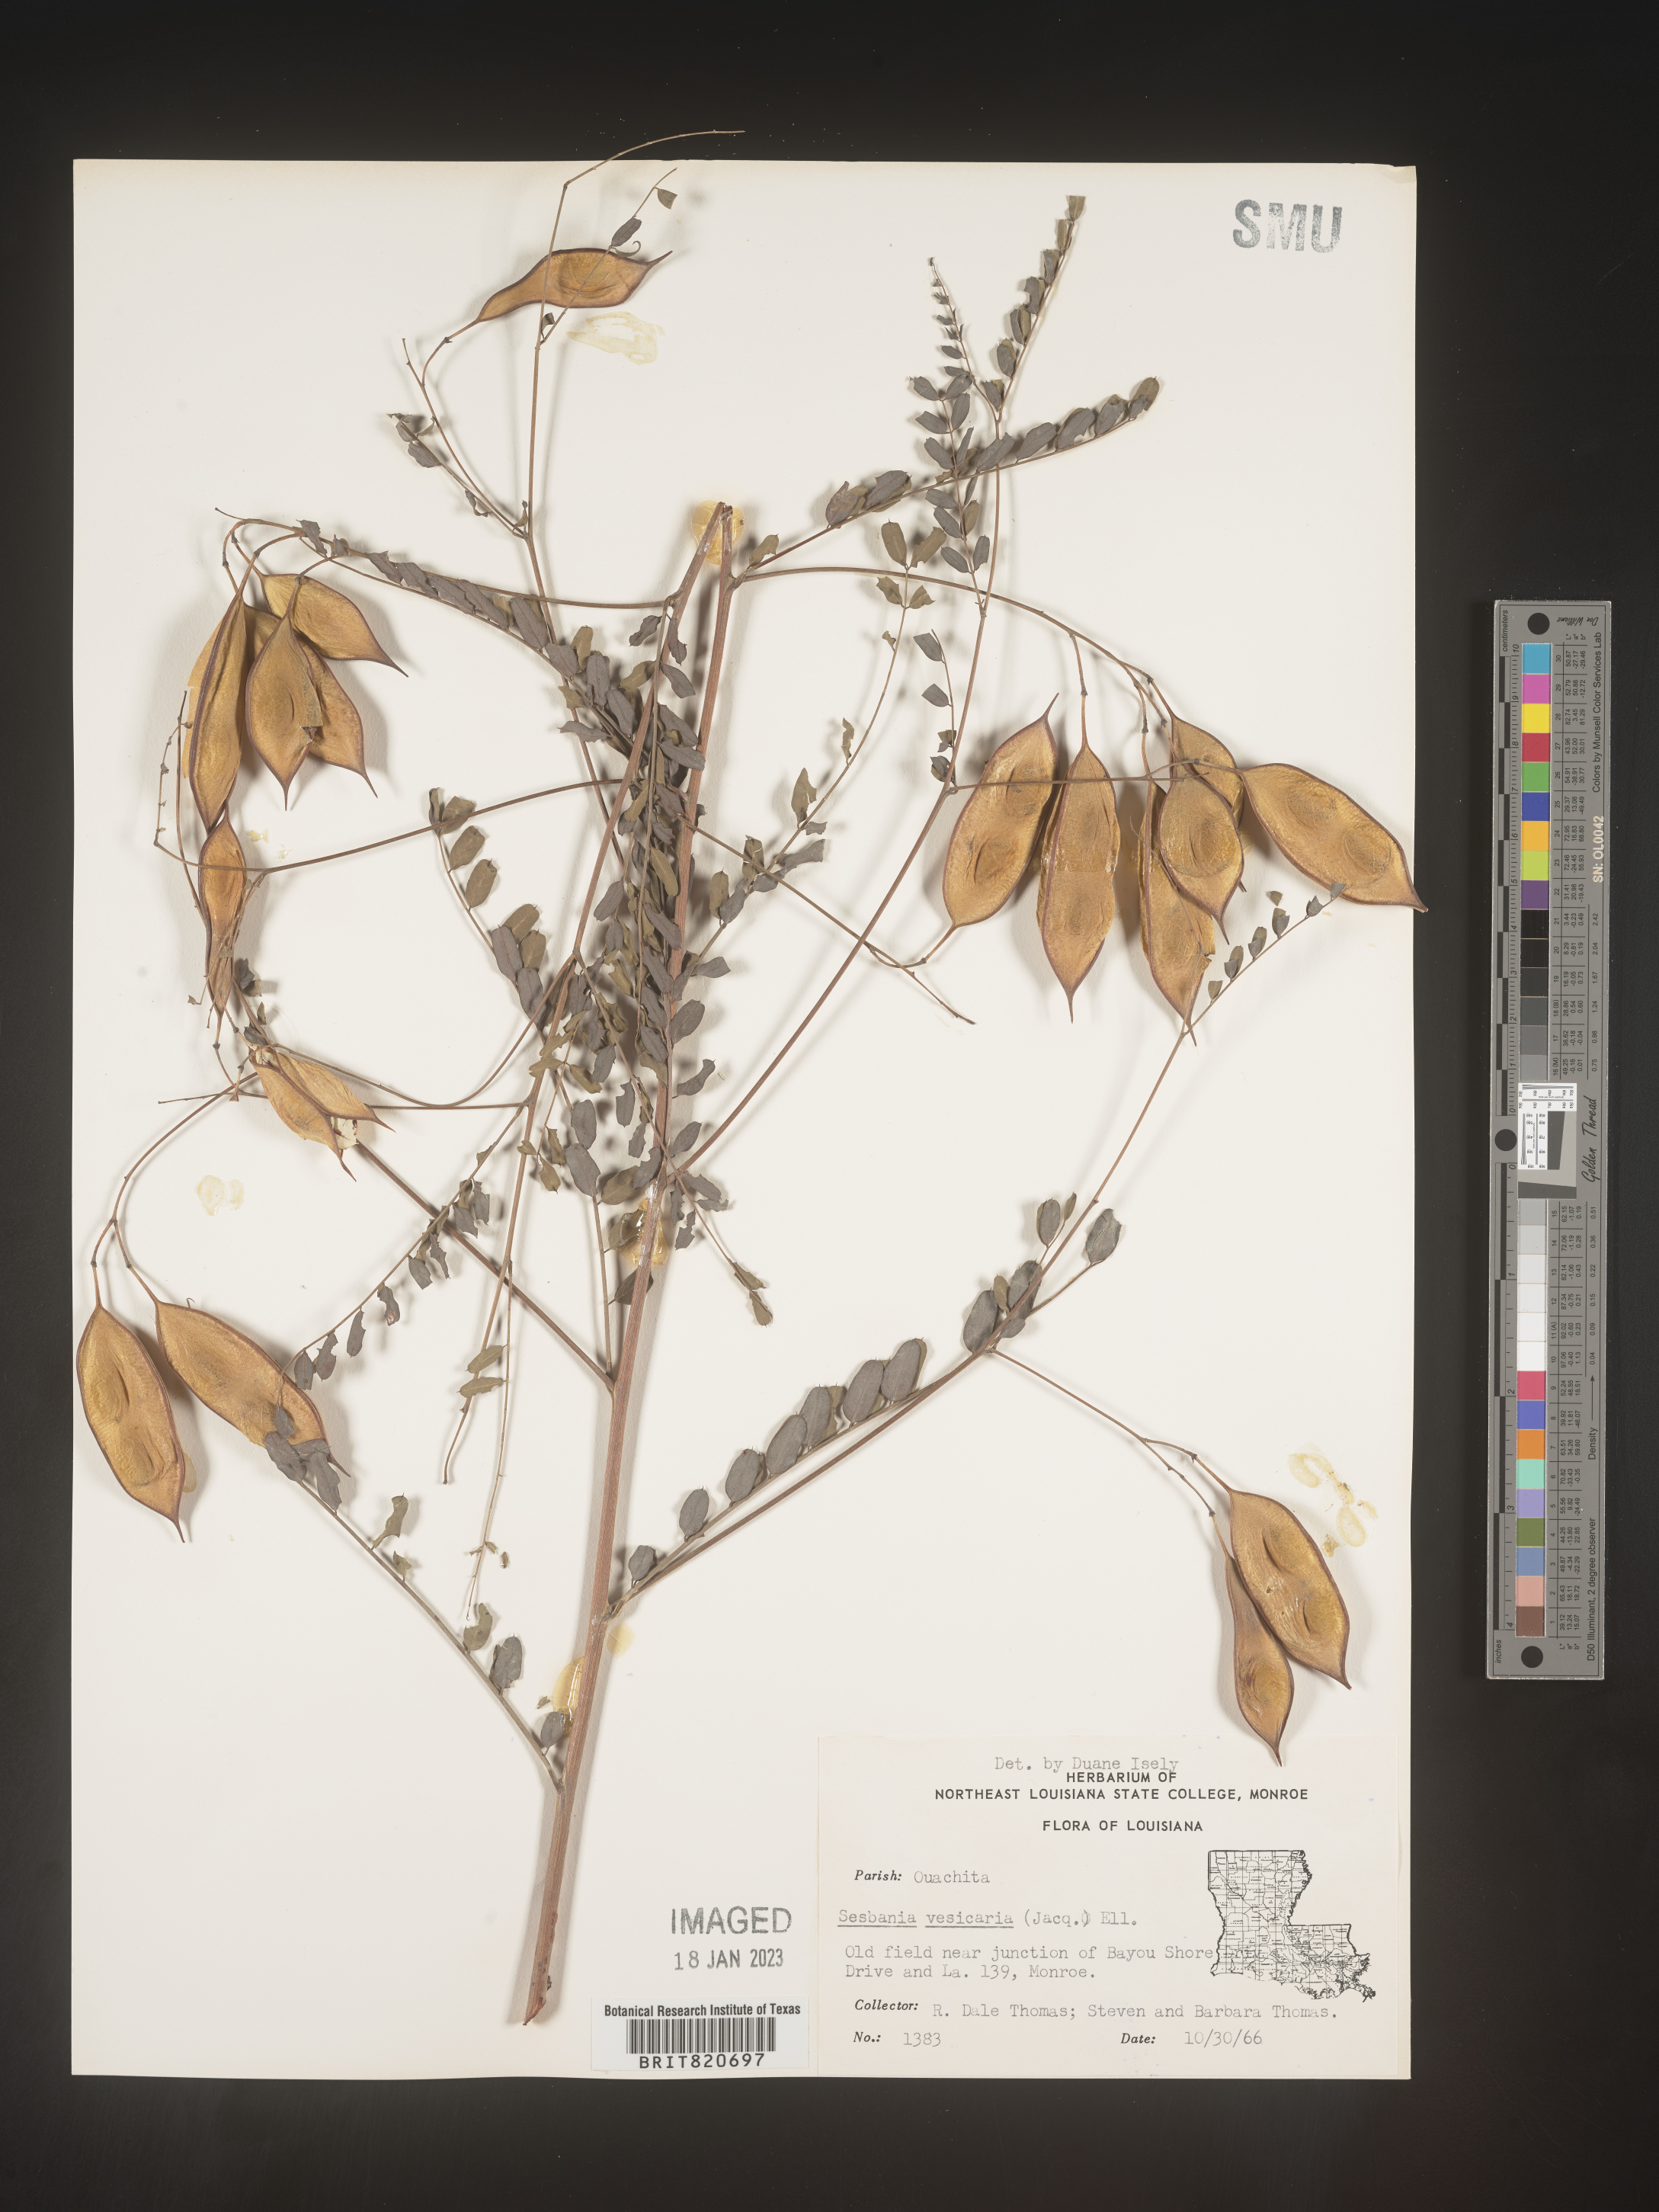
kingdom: Plantae
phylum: Tracheophyta
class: Magnoliopsida
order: Fabales
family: Fabaceae
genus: Sesbania
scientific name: Sesbania vesicaria
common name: Bagpod
